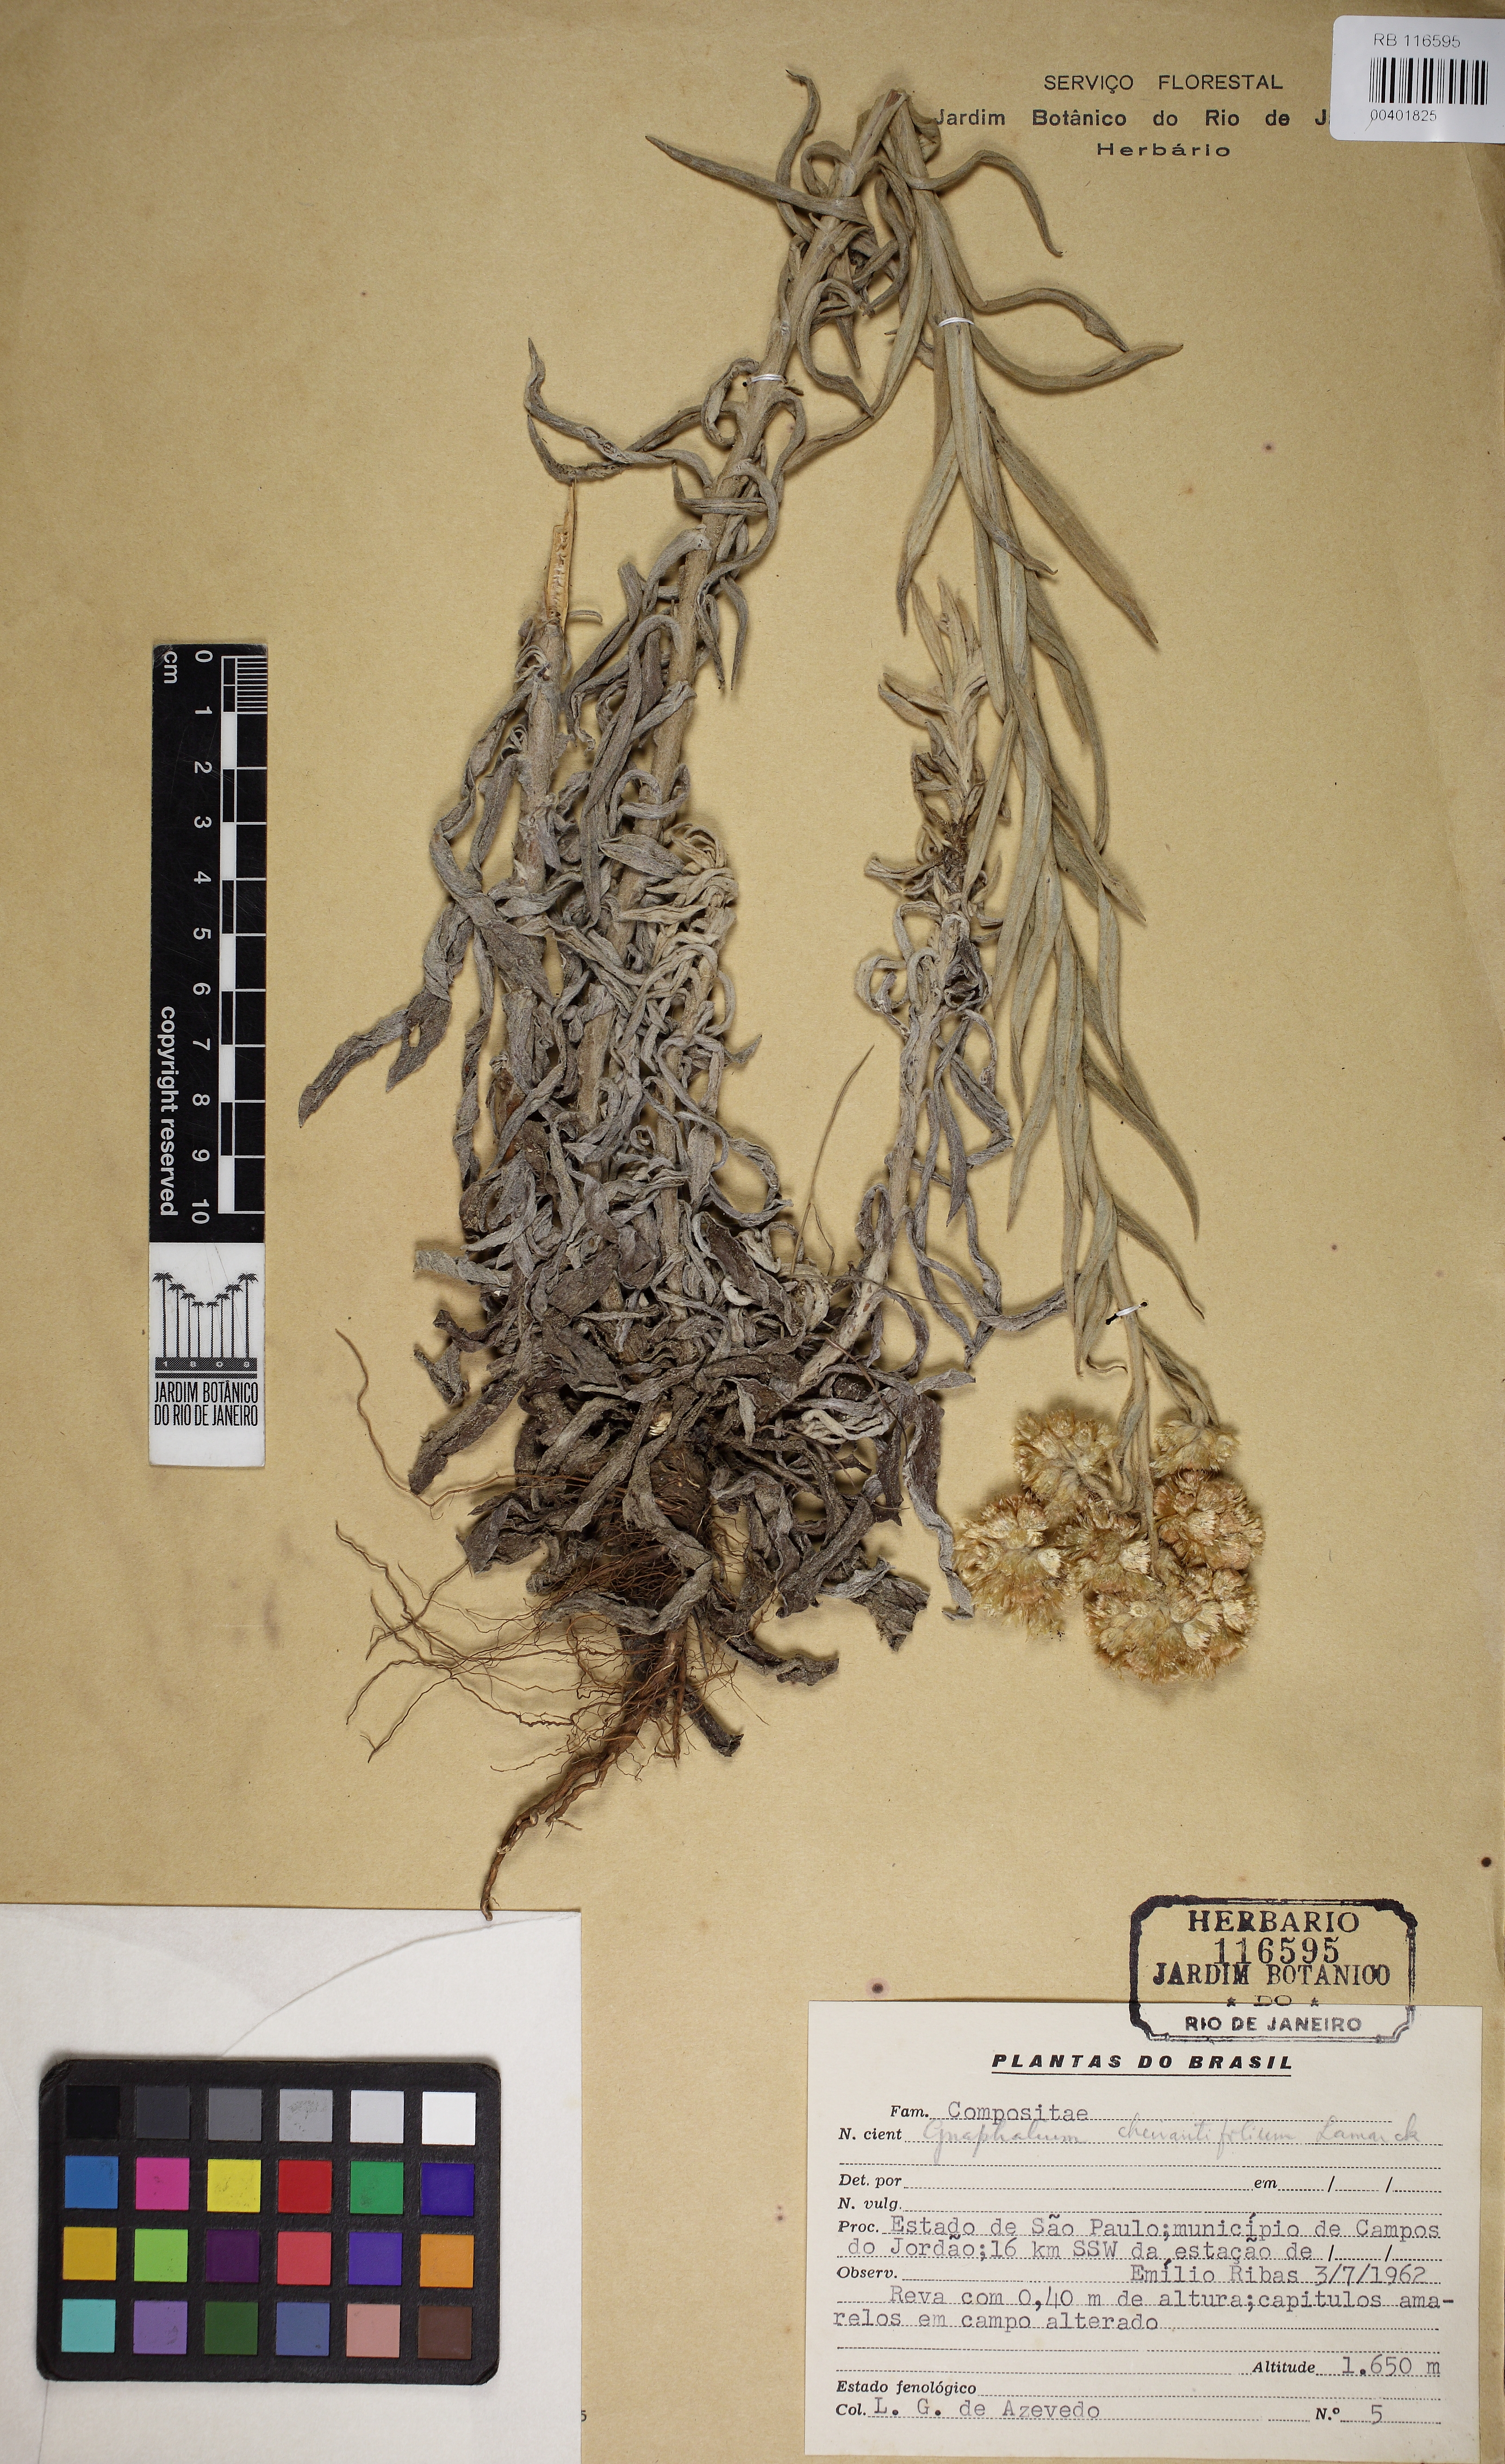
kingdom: Plantae
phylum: Tracheophyta
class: Magnoliopsida
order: Asterales
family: Asteraceae
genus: Pseudognaphalium
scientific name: Pseudognaphalium cheiranthifolium
